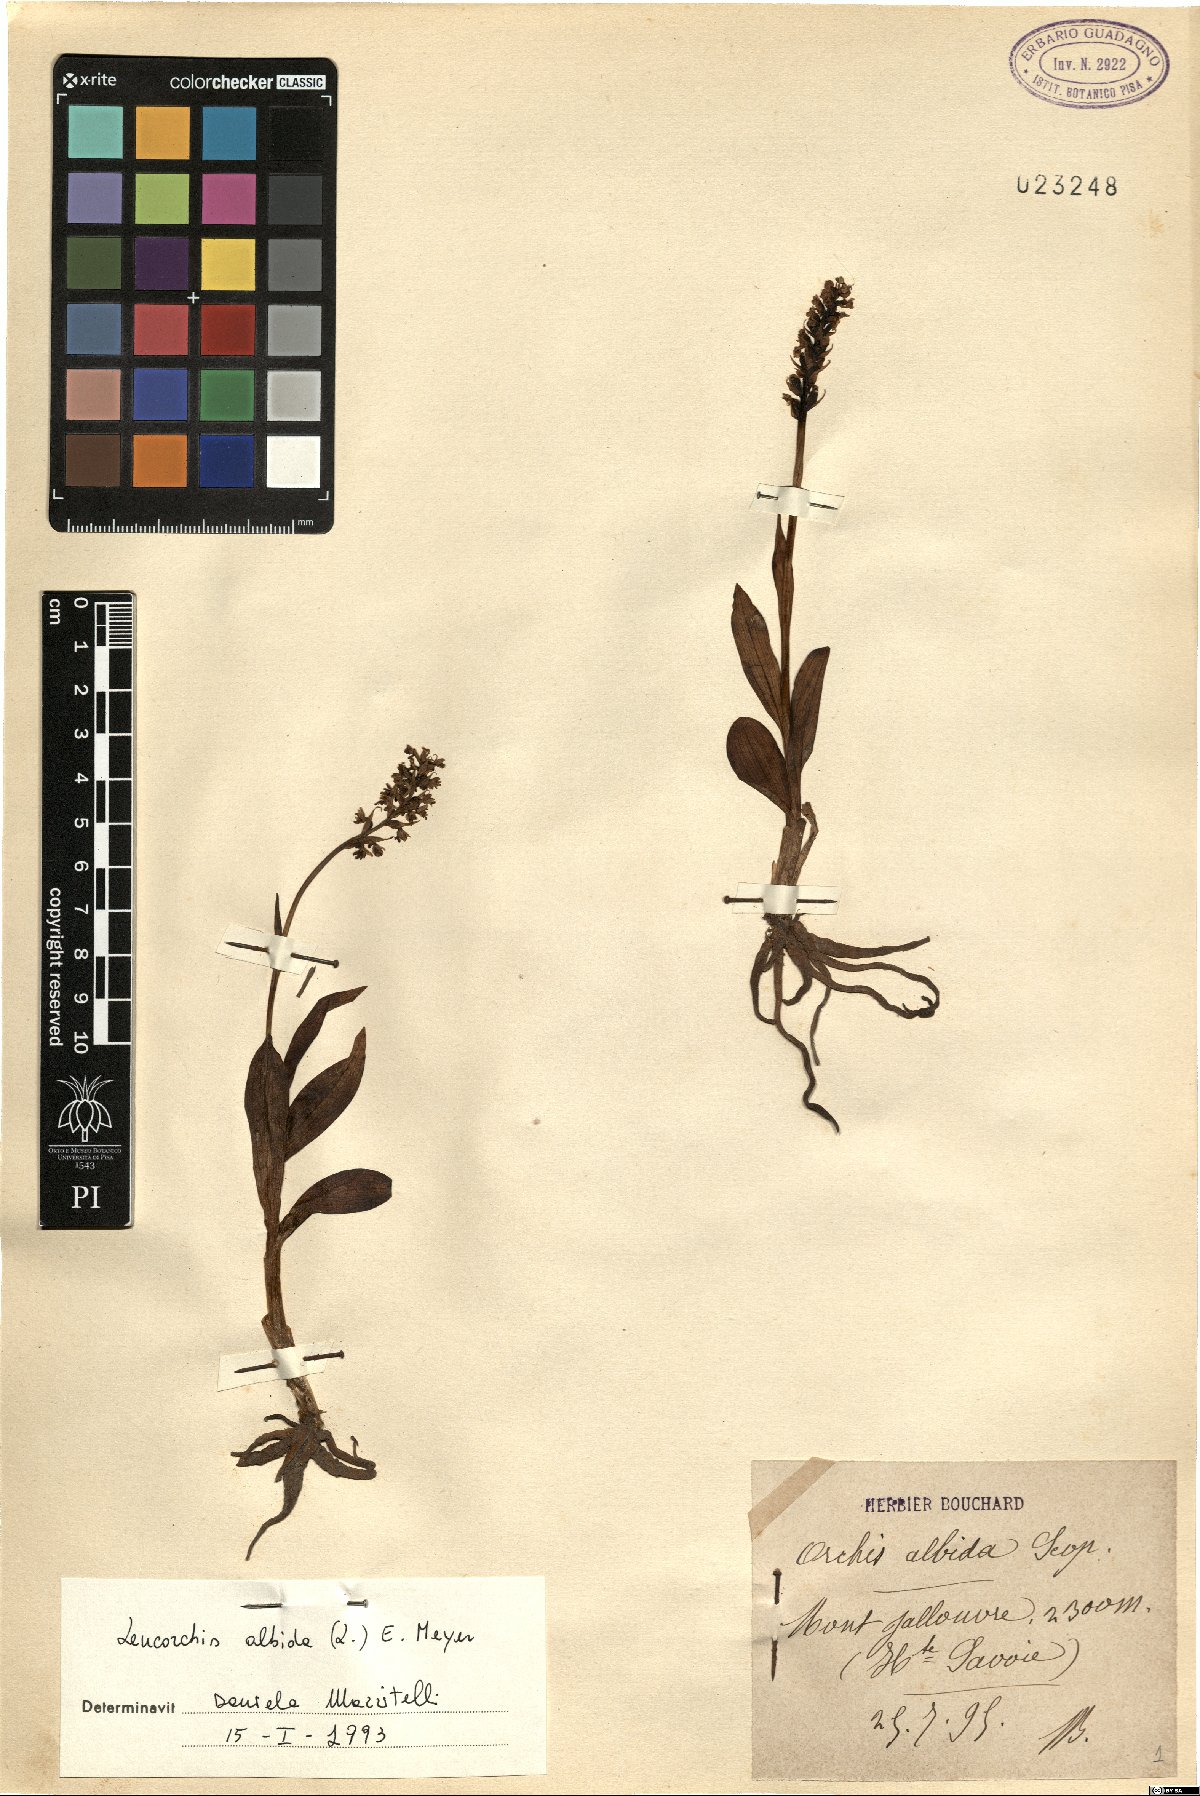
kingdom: Plantae
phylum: Tracheophyta
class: Liliopsida
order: Asparagales
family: Orchidaceae
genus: Pseudorchis
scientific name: Pseudorchis albida
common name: Small-white orchid
